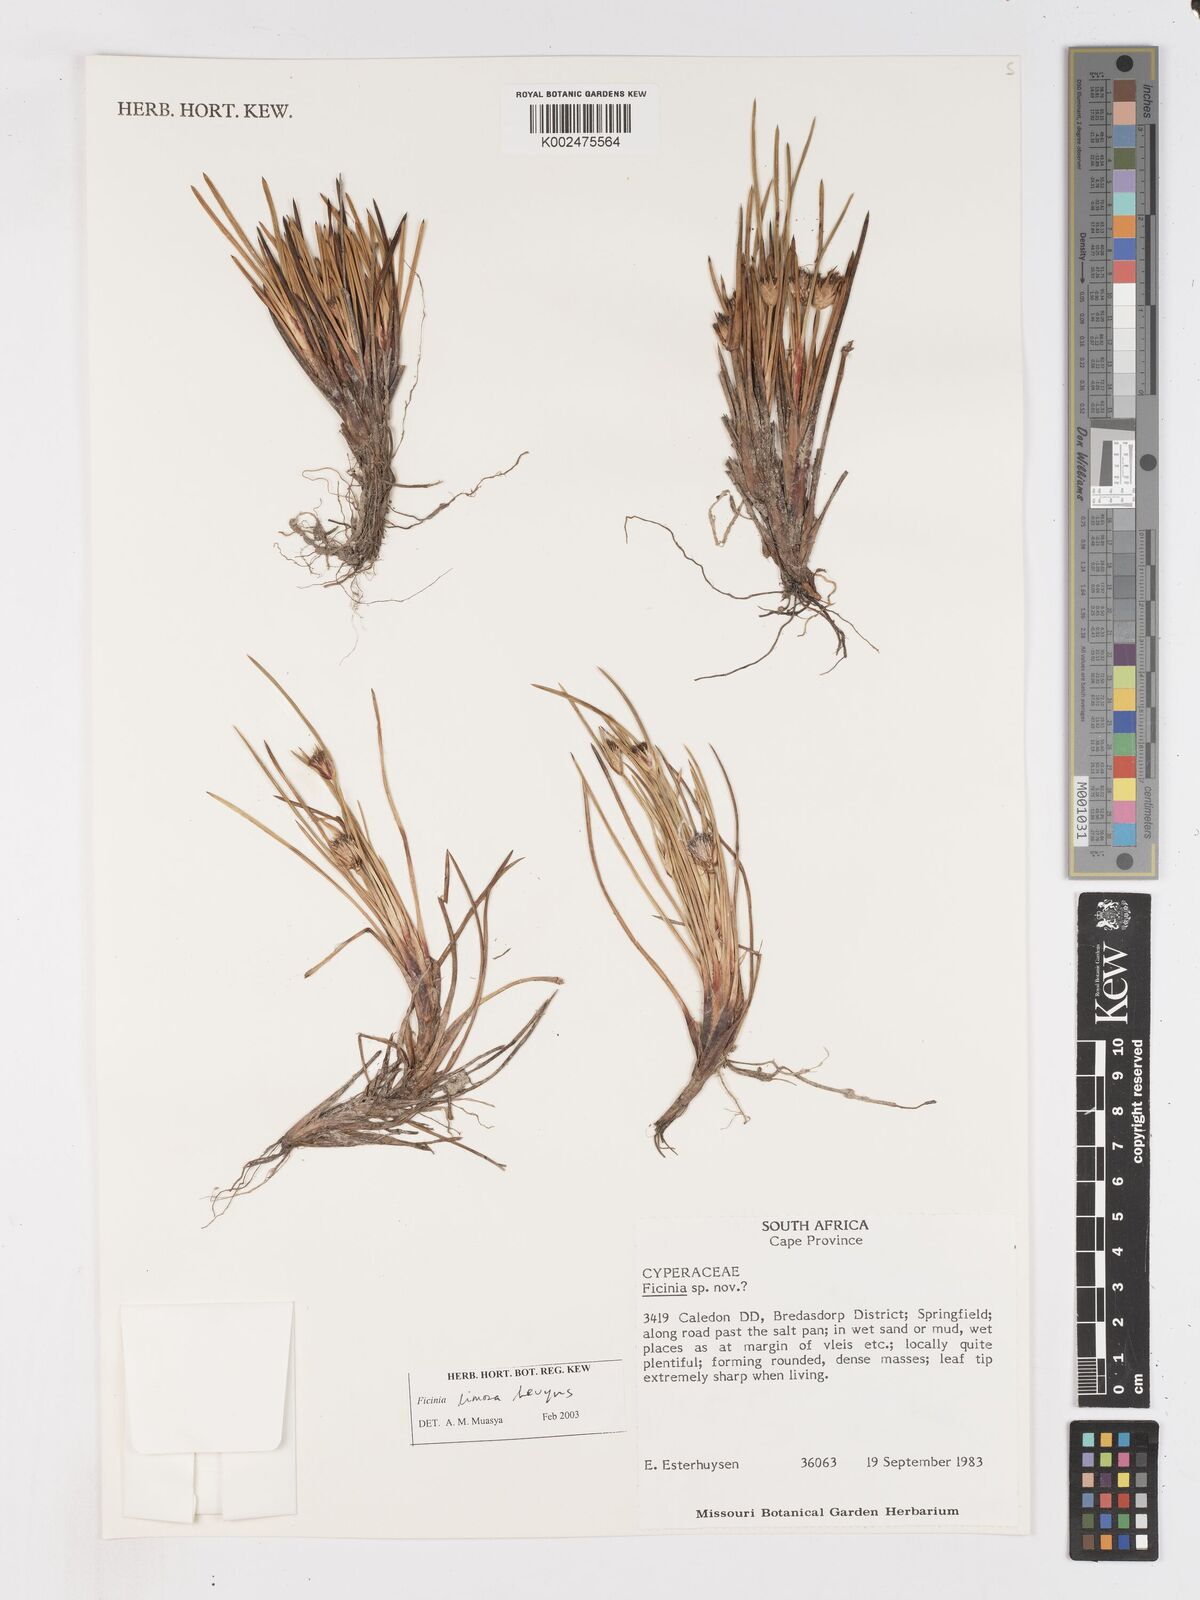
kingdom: Plantae
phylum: Tracheophyta
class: Liliopsida
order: Poales
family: Cyperaceae
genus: Ficinia
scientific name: Ficinia pygmaea
